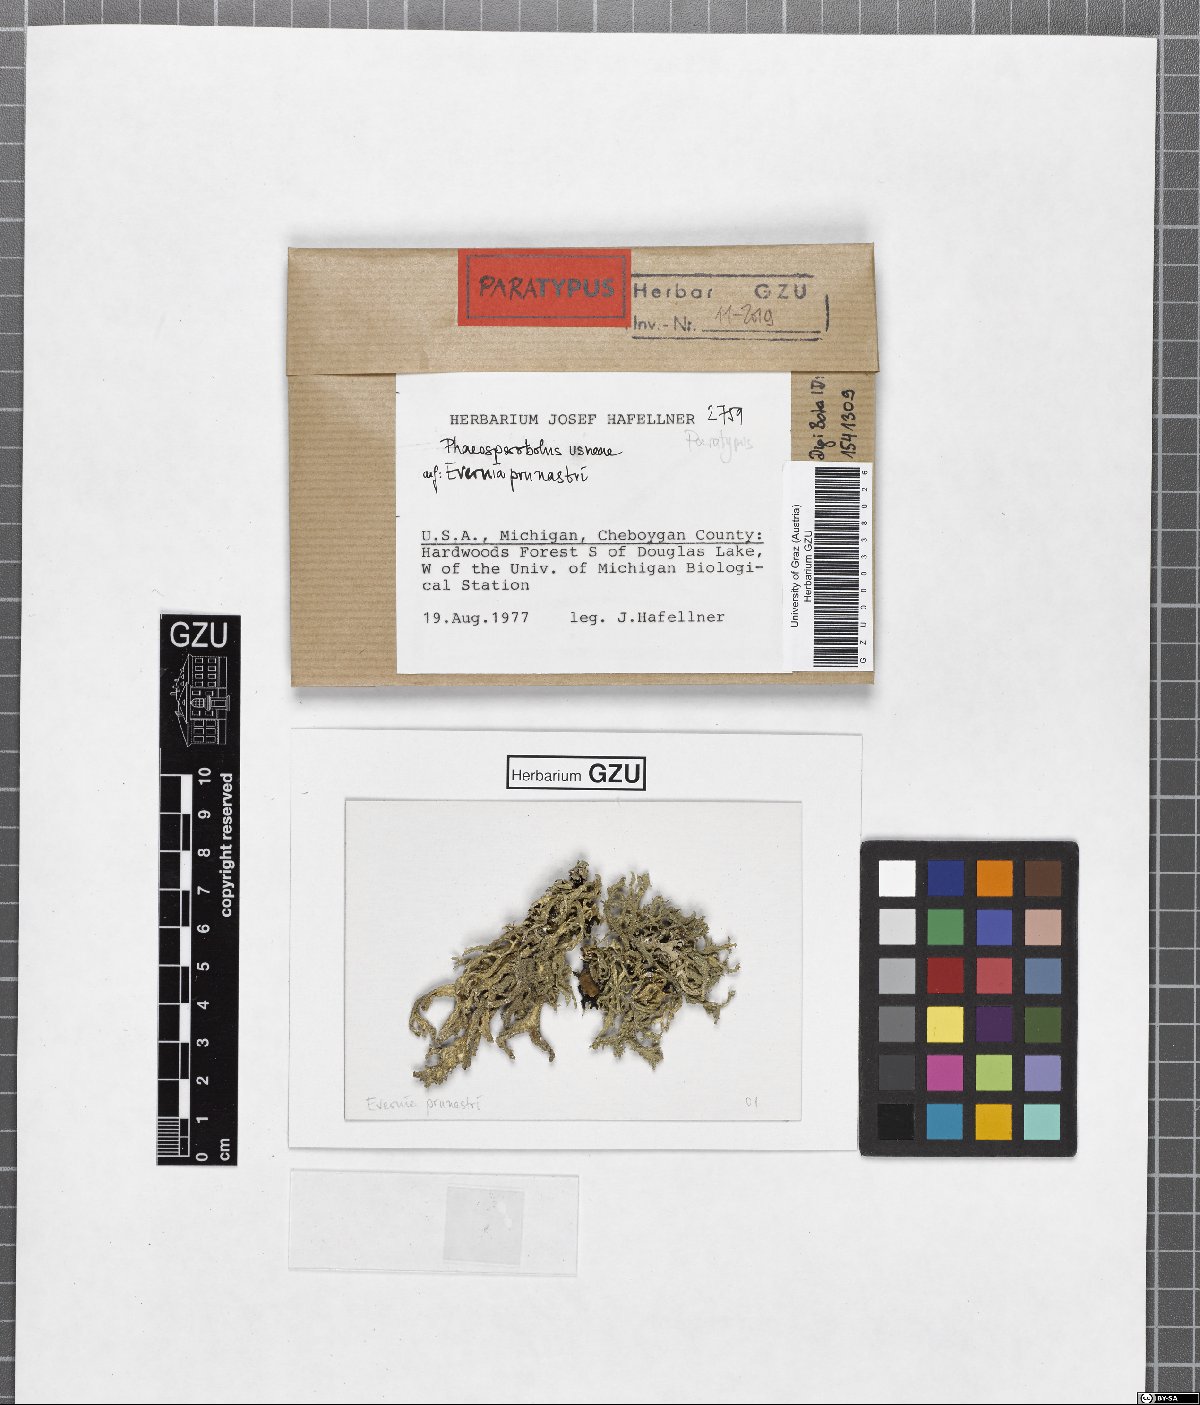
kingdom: Fungi
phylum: Ascomycota
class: Arthoniomycetes
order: Lichenostigmatales
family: Phaeococcomycetaceae
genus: Phaeosporobolus
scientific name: Phaeosporobolus usneae
